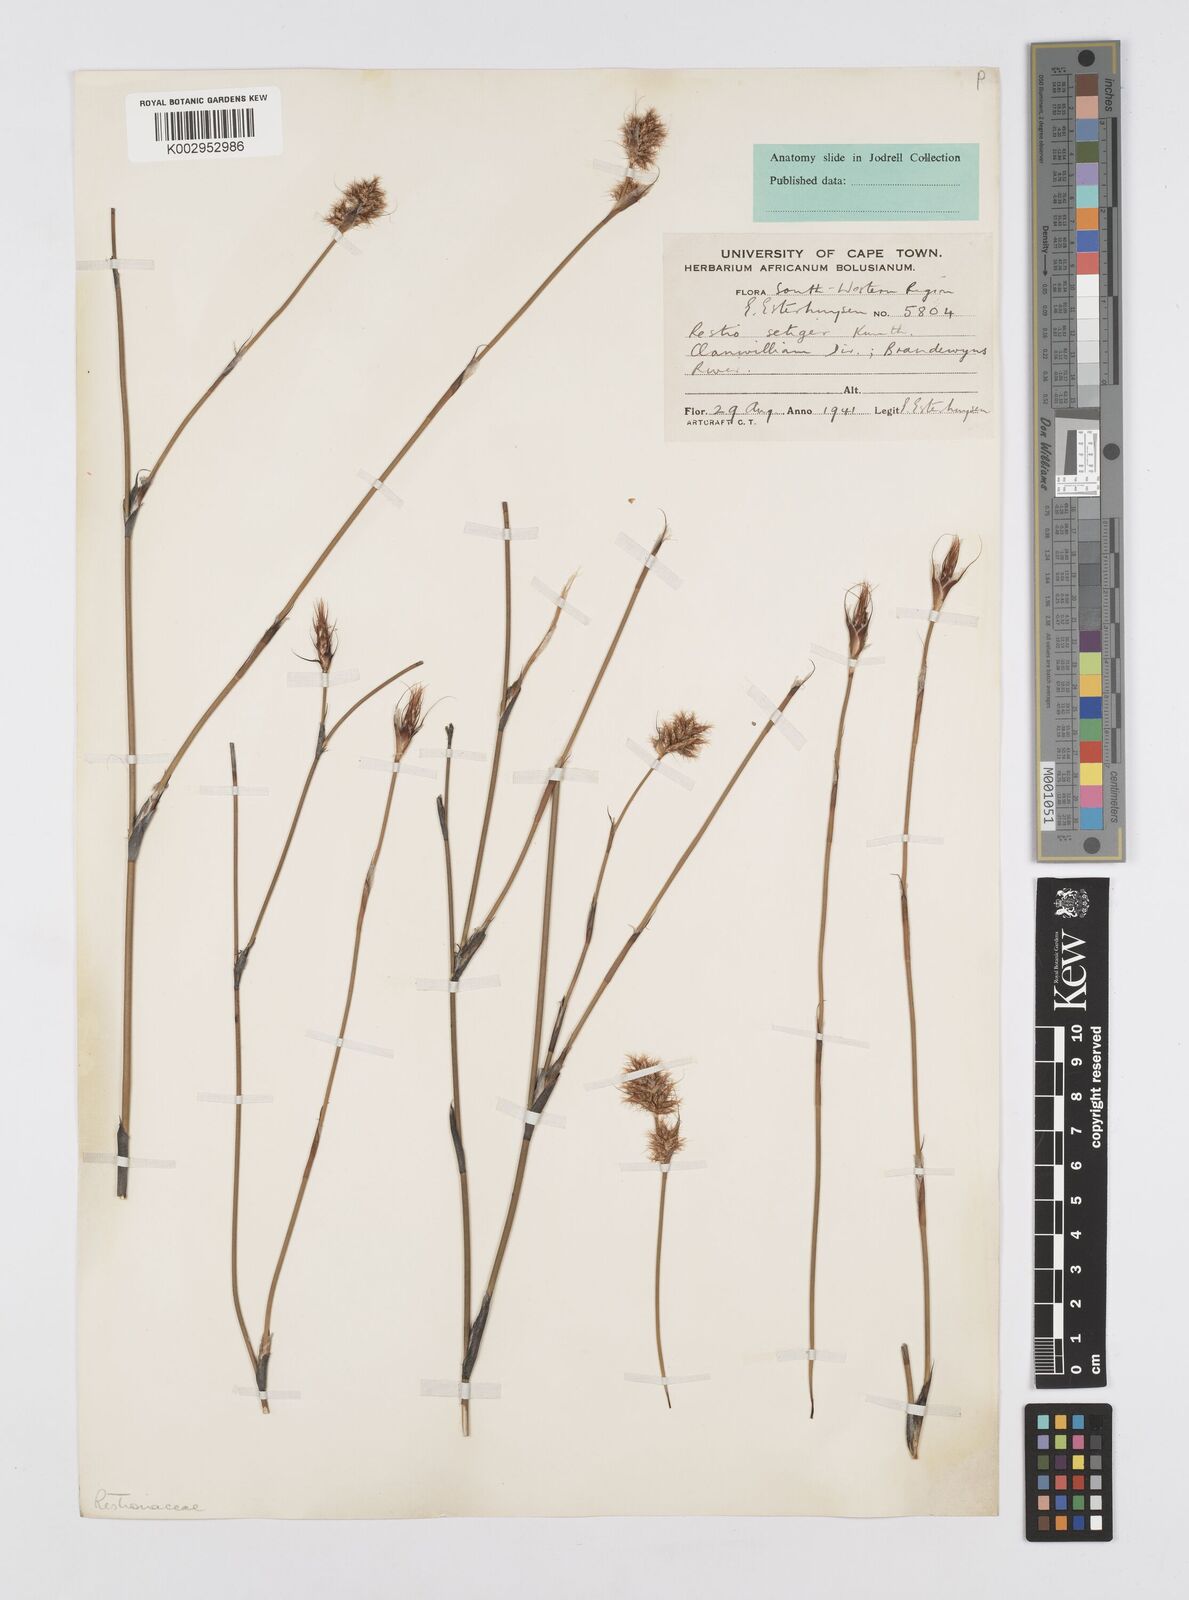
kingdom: Plantae
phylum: Tracheophyta
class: Liliopsida
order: Poales
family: Restionaceae
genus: Restio
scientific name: Restio setiger
